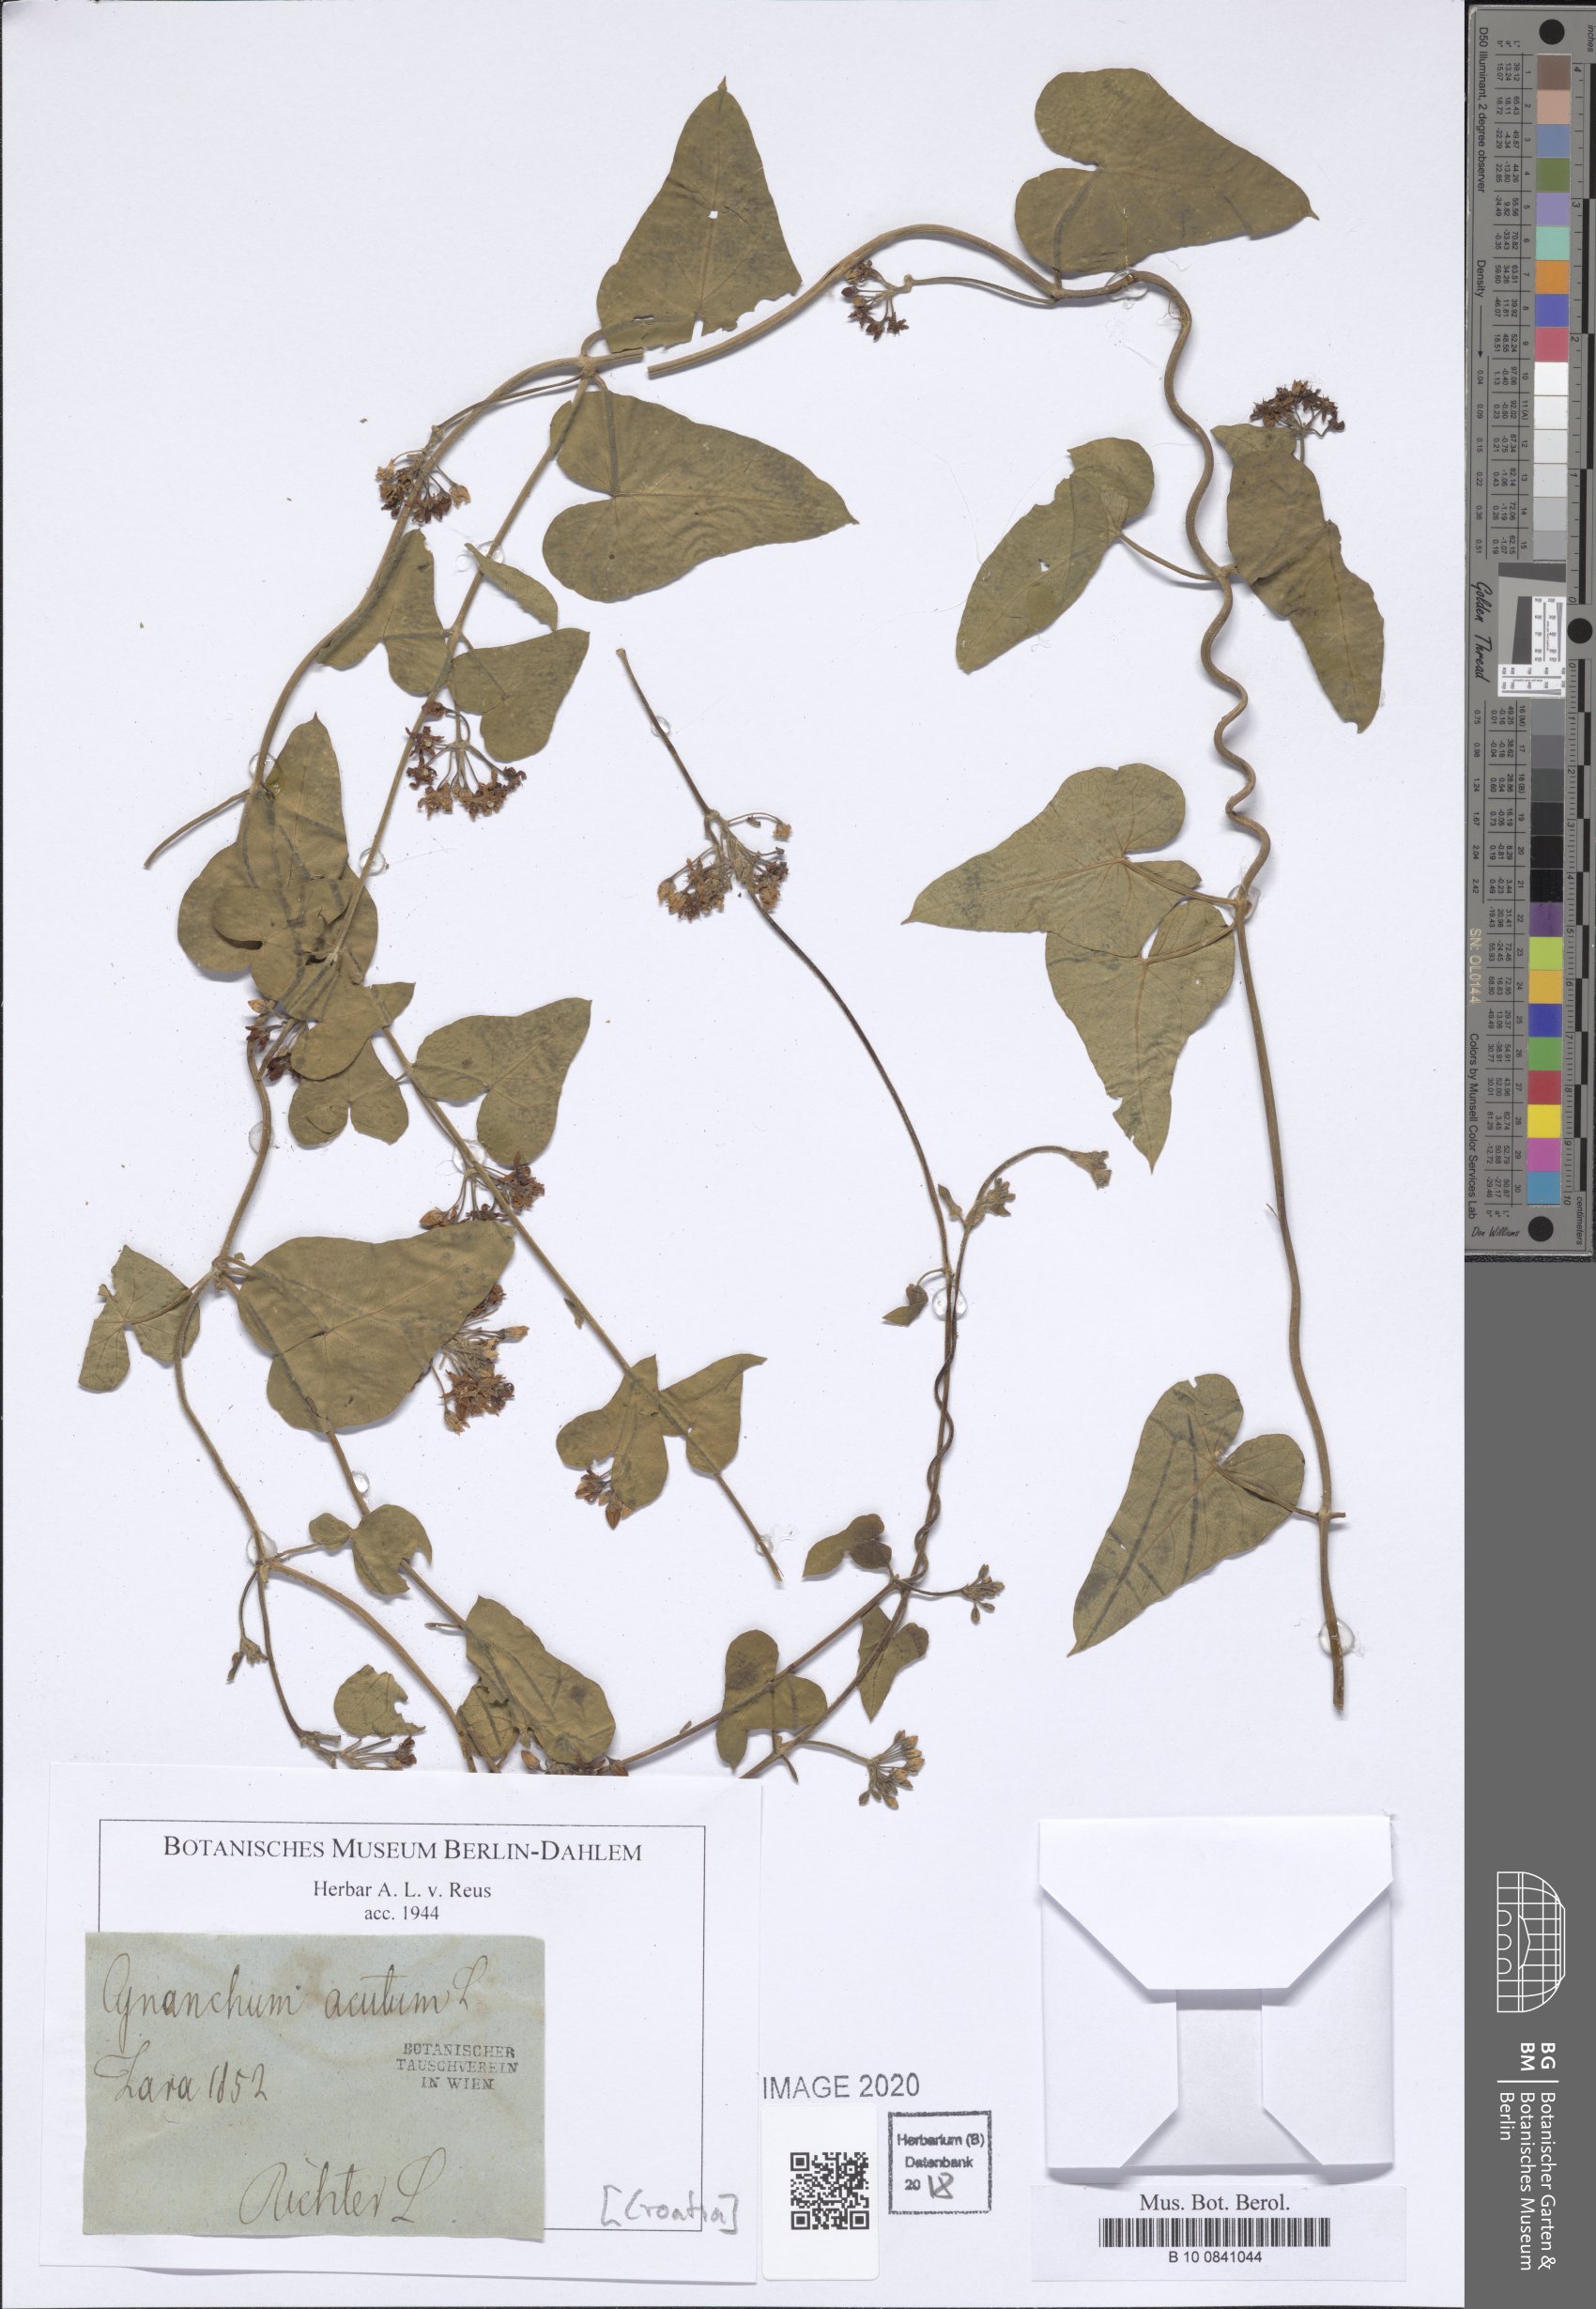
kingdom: Plantae
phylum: Tracheophyta
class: Magnoliopsida
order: Gentianales
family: Apocynaceae
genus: Cynanchum
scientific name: Cynanchum acutum
